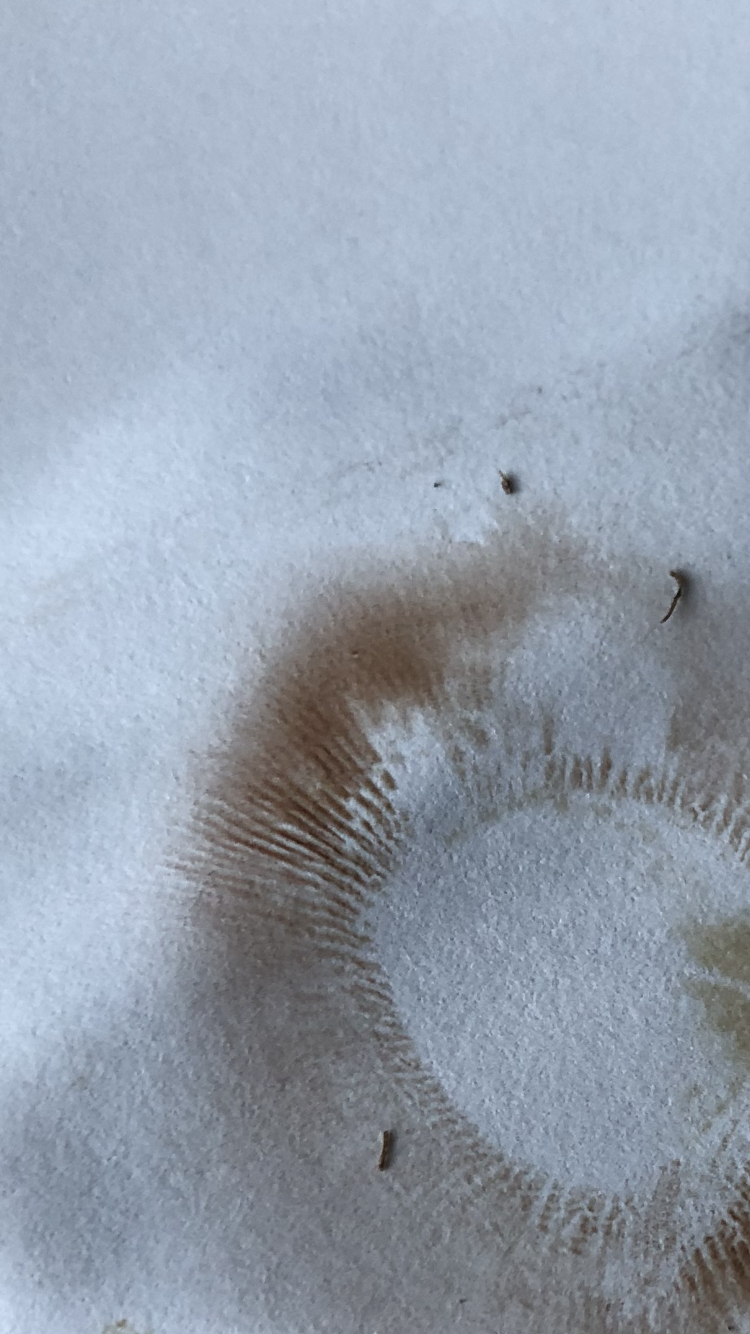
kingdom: Fungi
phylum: Basidiomycota
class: Agaricomycetes
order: Boletales
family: Paxillaceae
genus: Paxillus
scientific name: Paxillus obscurisporus
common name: mahognisporet netbladhat
